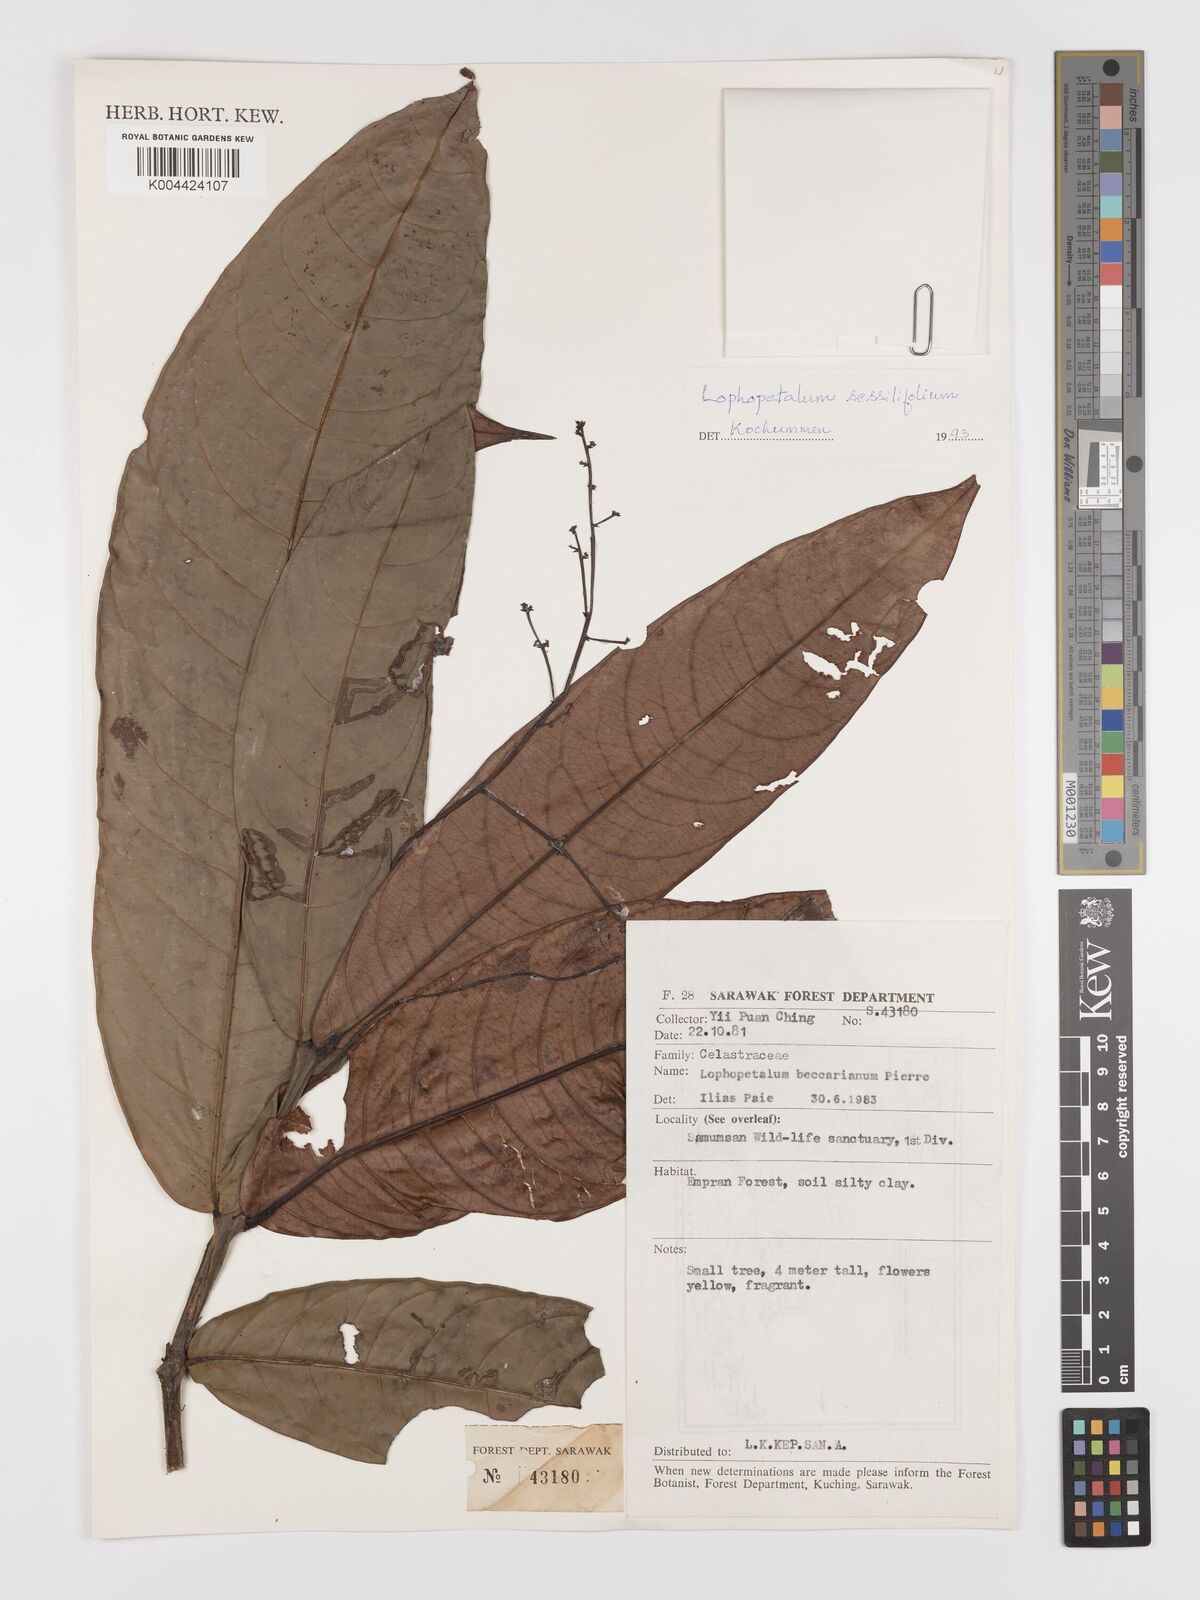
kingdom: Plantae
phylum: Tracheophyta
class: Magnoliopsida
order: Celastrales
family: Celastraceae
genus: Lophopetalum
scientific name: Lophopetalum sessilifolium
